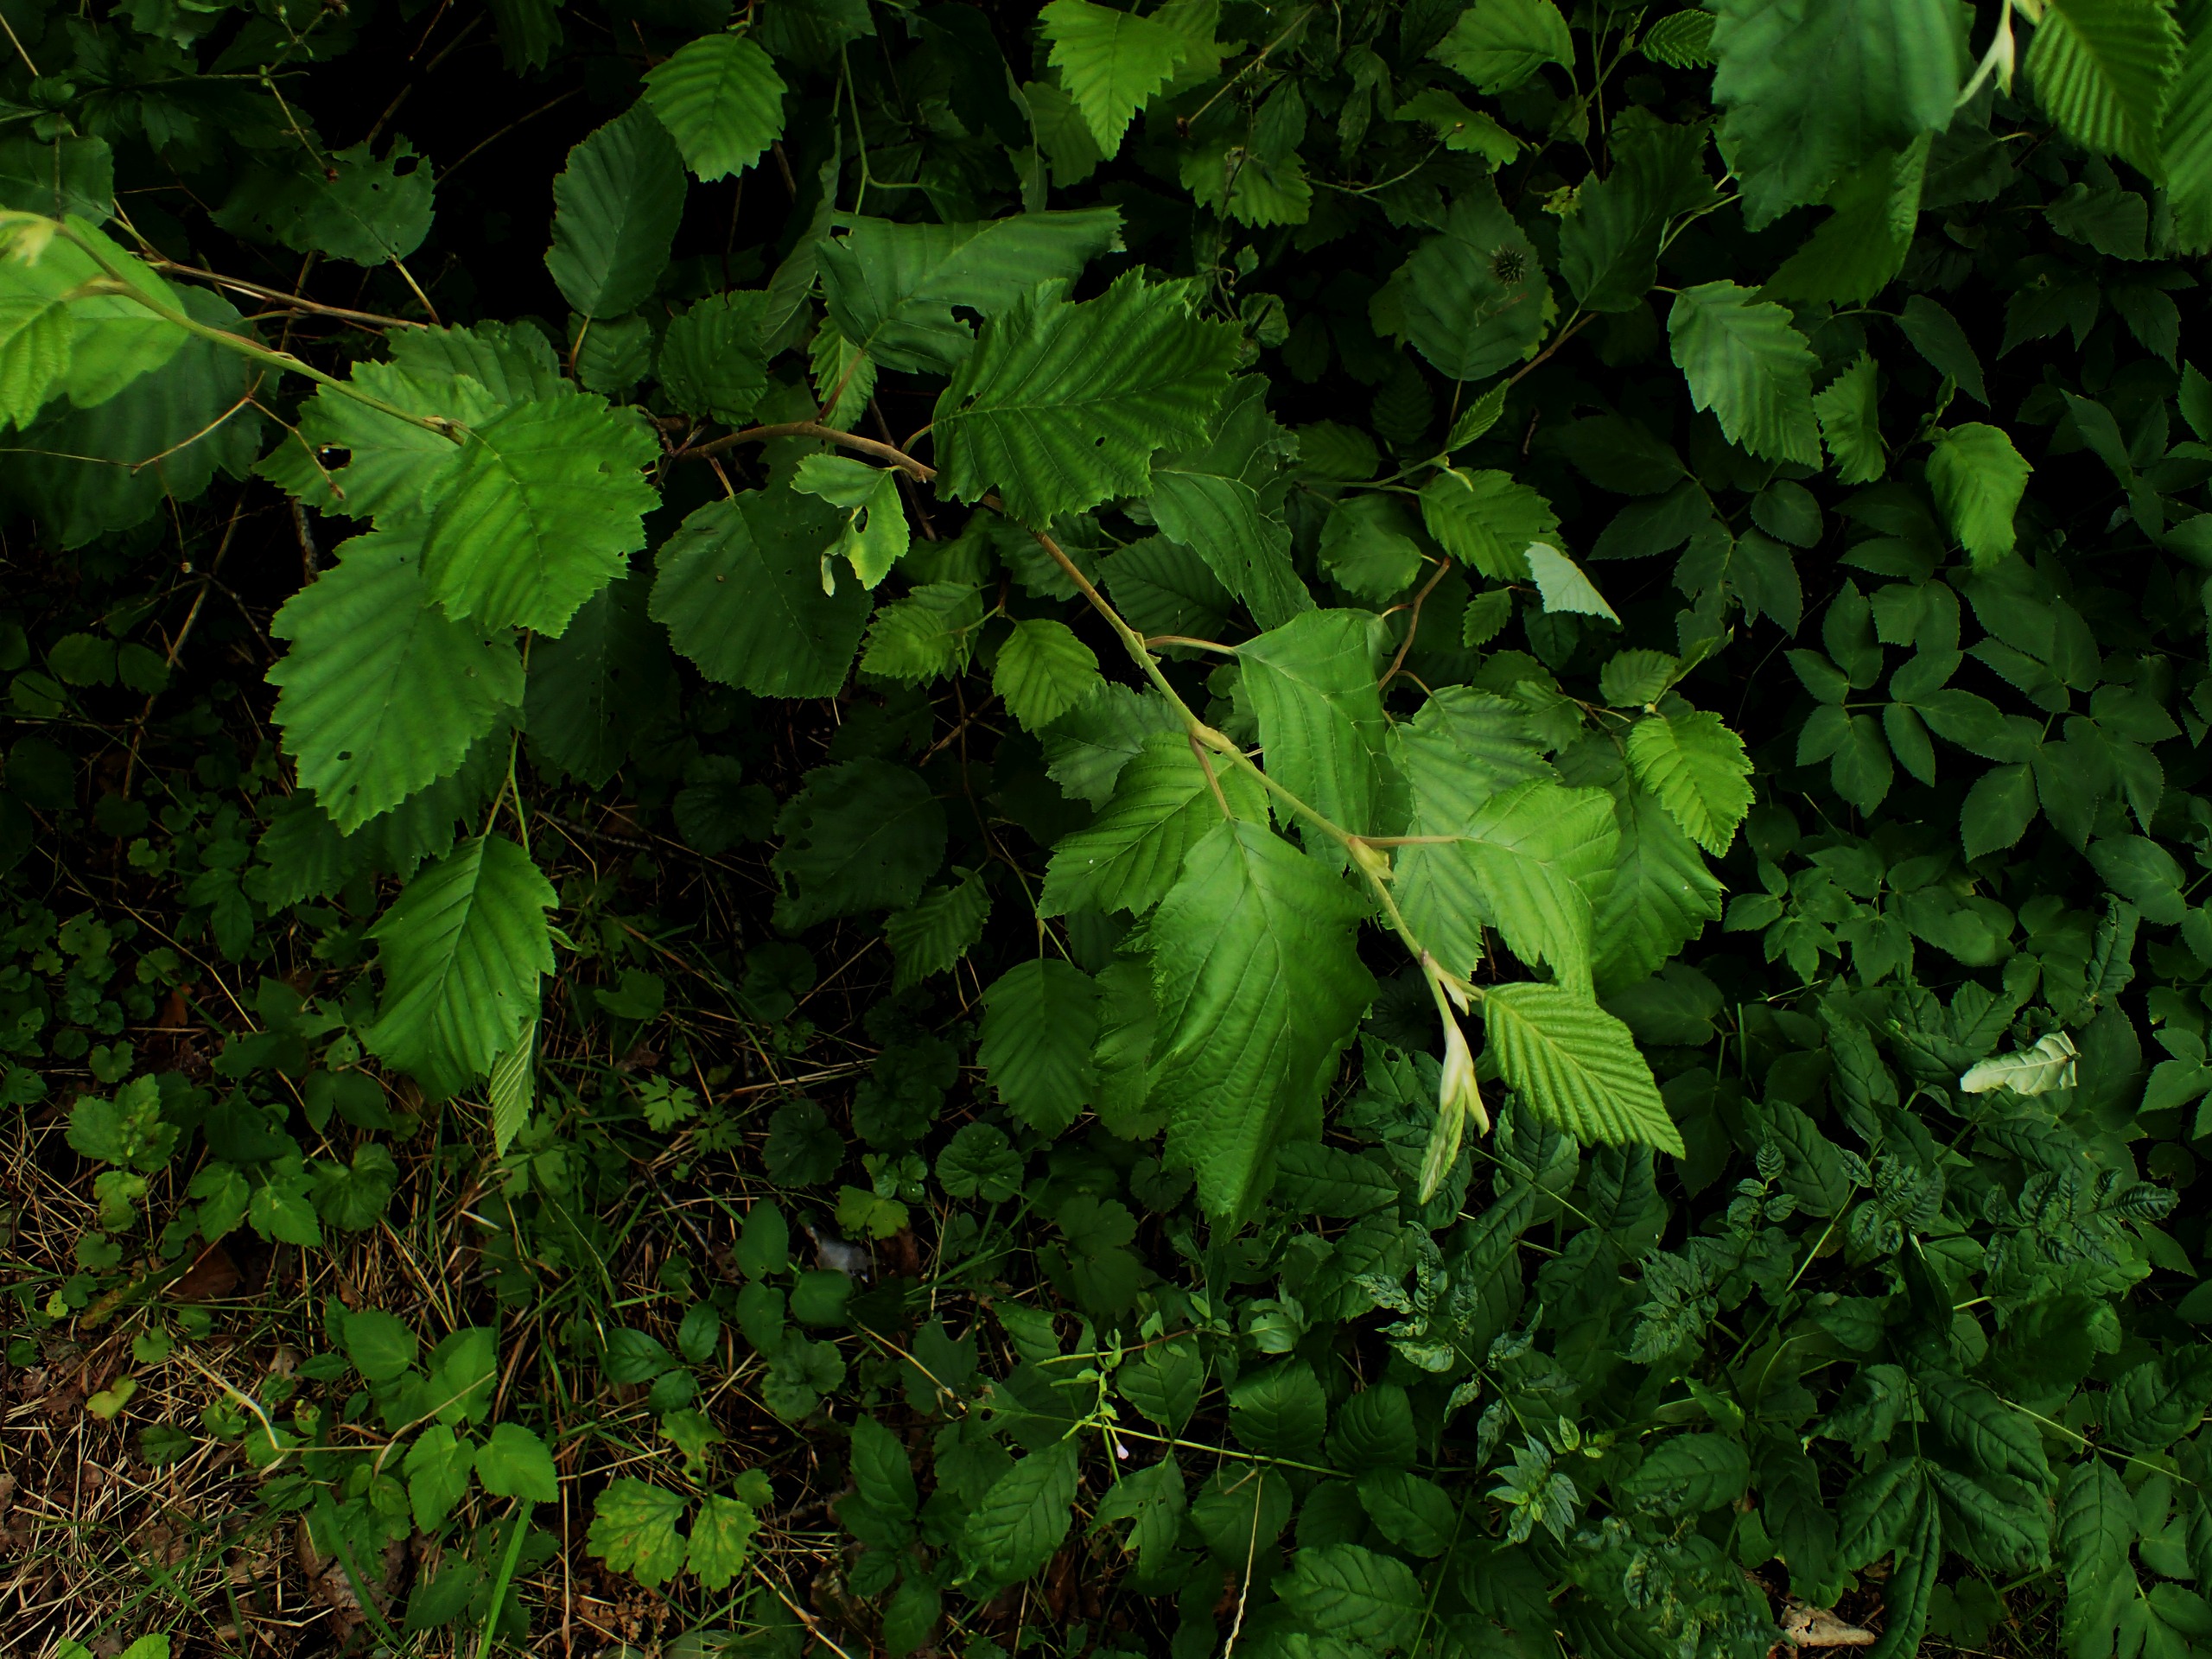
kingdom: Plantae
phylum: Tracheophyta
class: Magnoliopsida
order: Fagales
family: Betulaceae
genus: Alnus
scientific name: Alnus incana
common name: Grå-el/hvid-el
